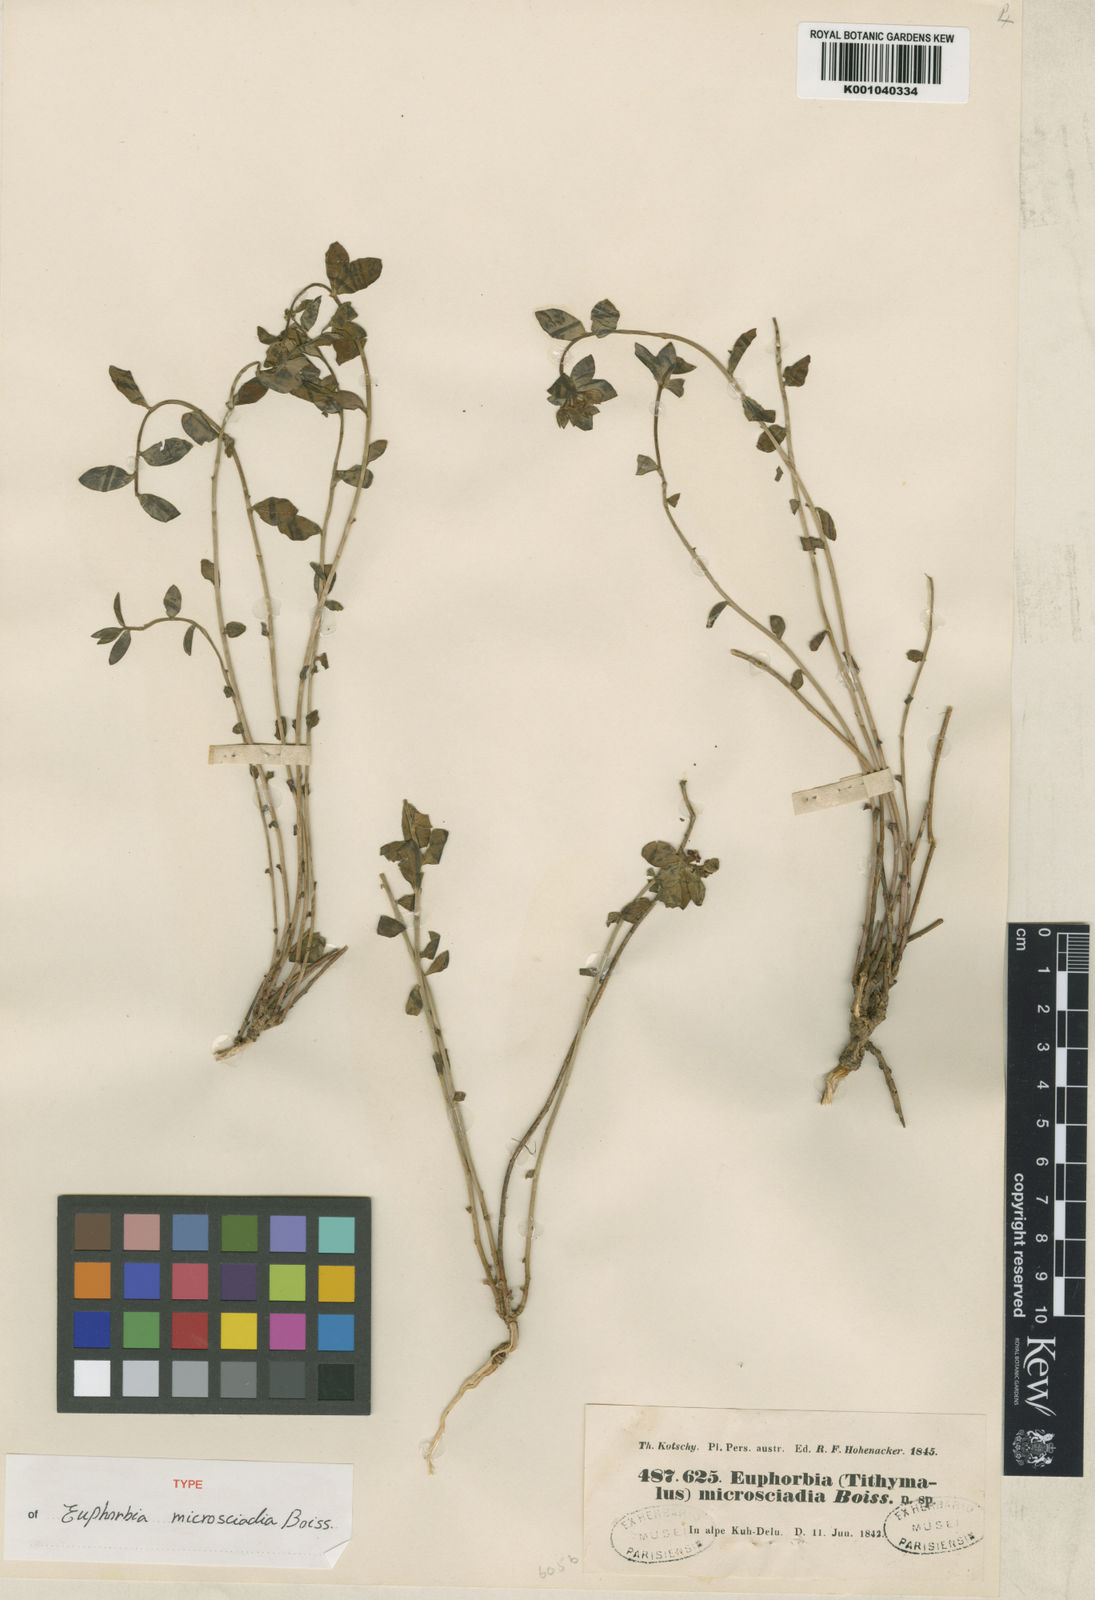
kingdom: Plantae
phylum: Tracheophyta
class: Magnoliopsida
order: Malpighiales
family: Euphorbiaceae
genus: Euphorbia
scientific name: Euphorbia microsciadia
